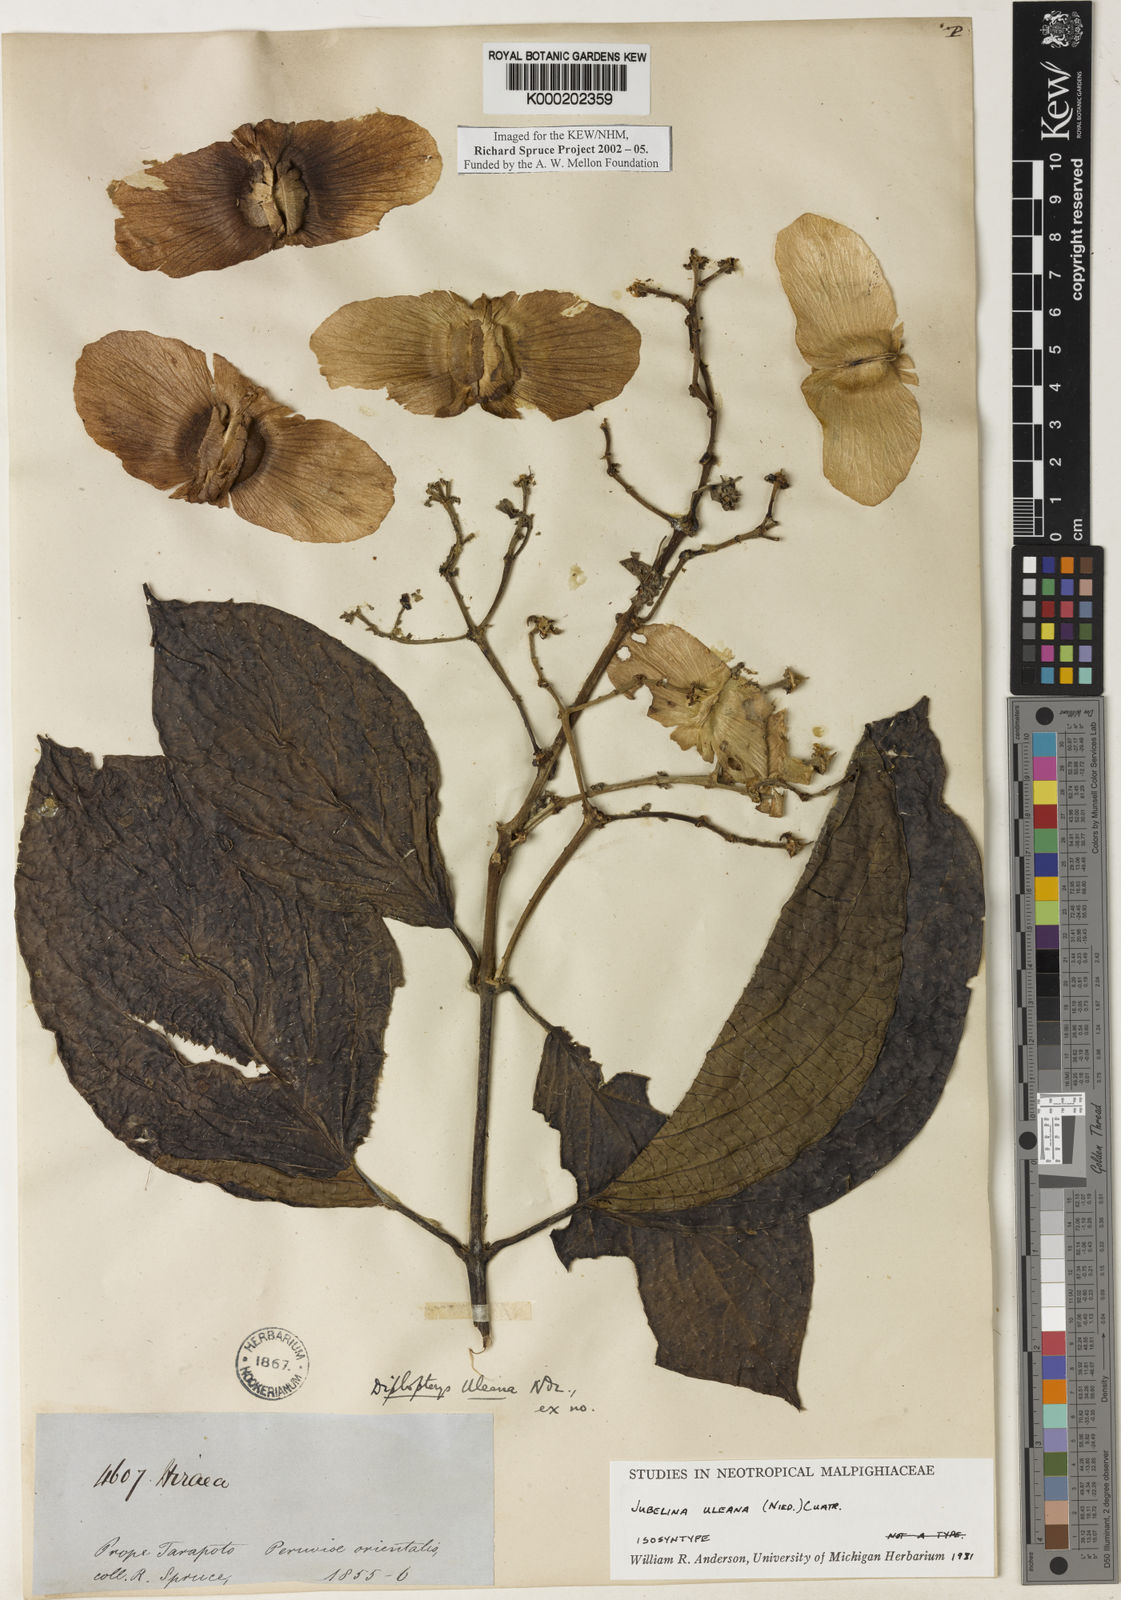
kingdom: Plantae
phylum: Tracheophyta
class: Magnoliopsida
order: Malpighiales
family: Malpighiaceae
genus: Jubelina
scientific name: Jubelina uleana
